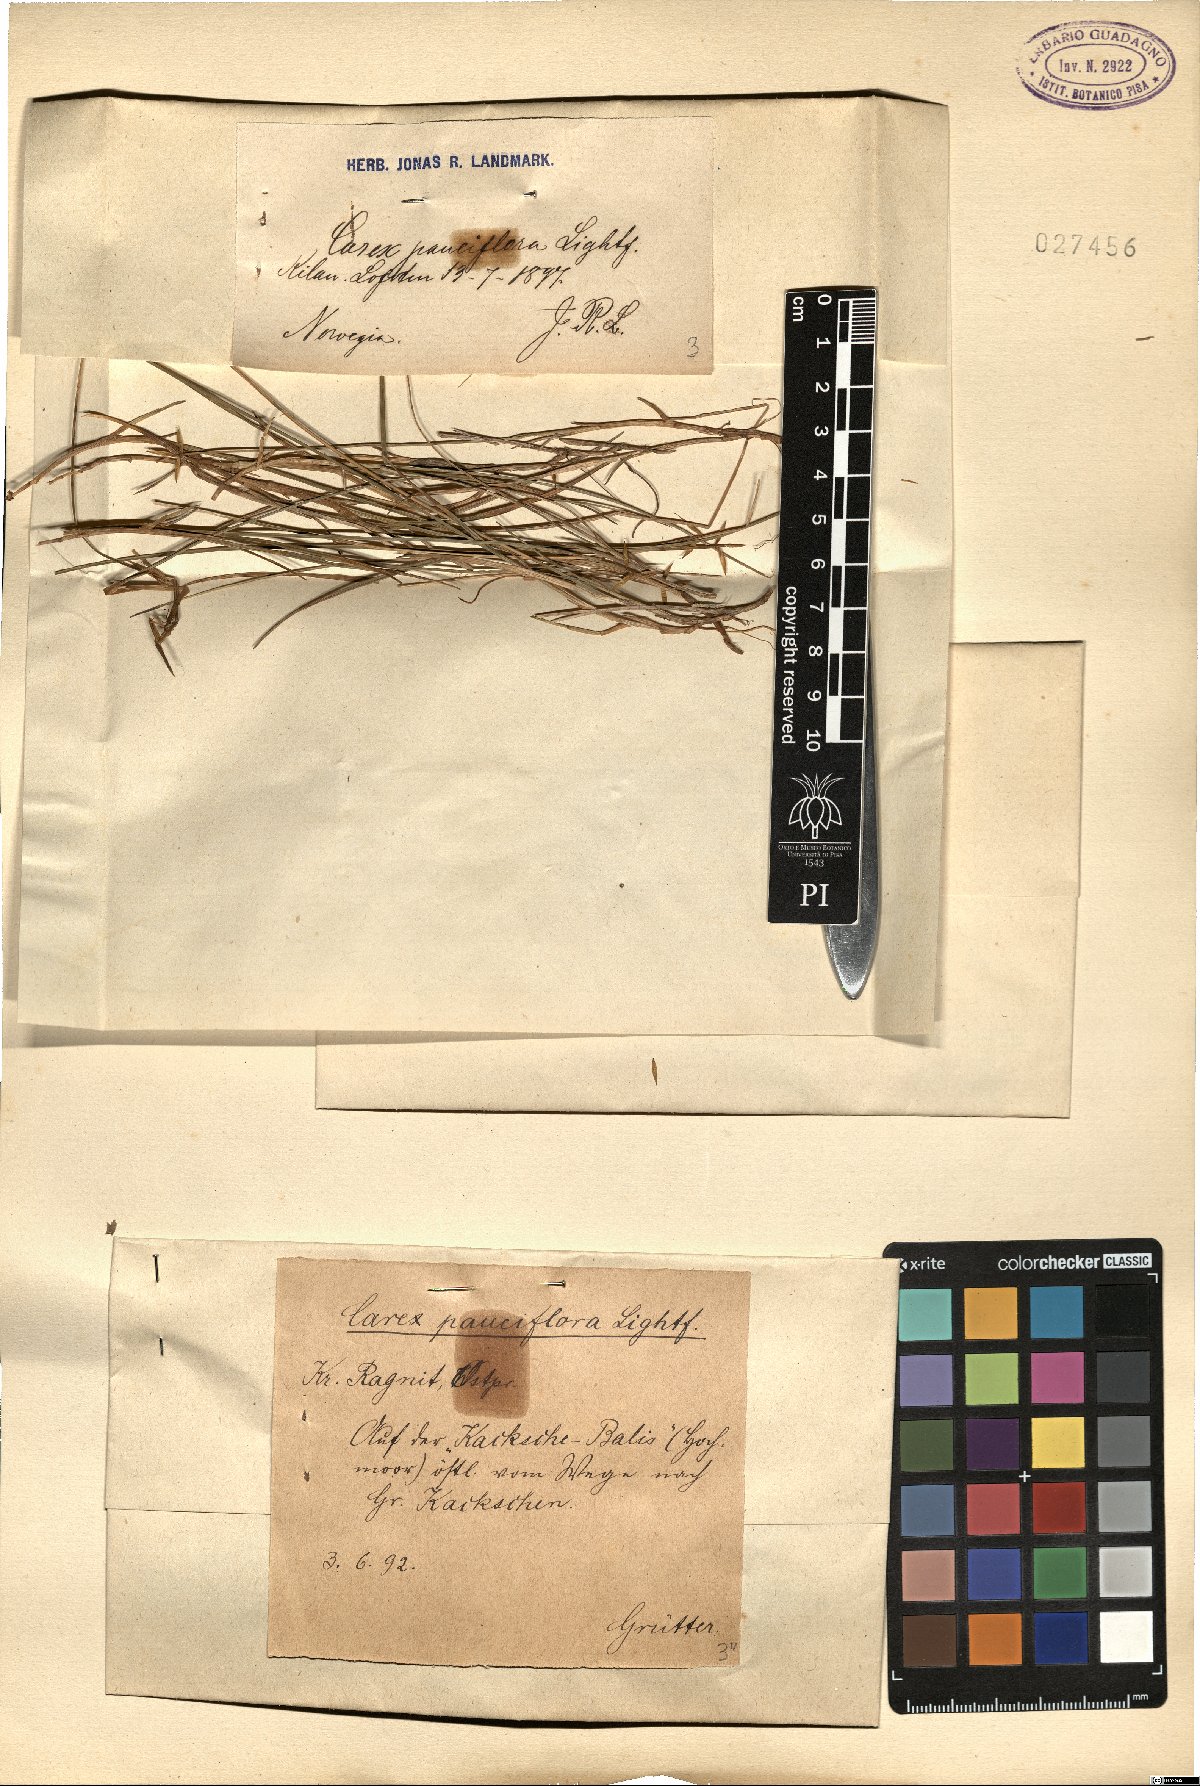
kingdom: Plantae
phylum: Tracheophyta
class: Liliopsida
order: Poales
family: Cyperaceae
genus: Carex
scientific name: Carex pauciflora
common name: Few-flowered sedge
